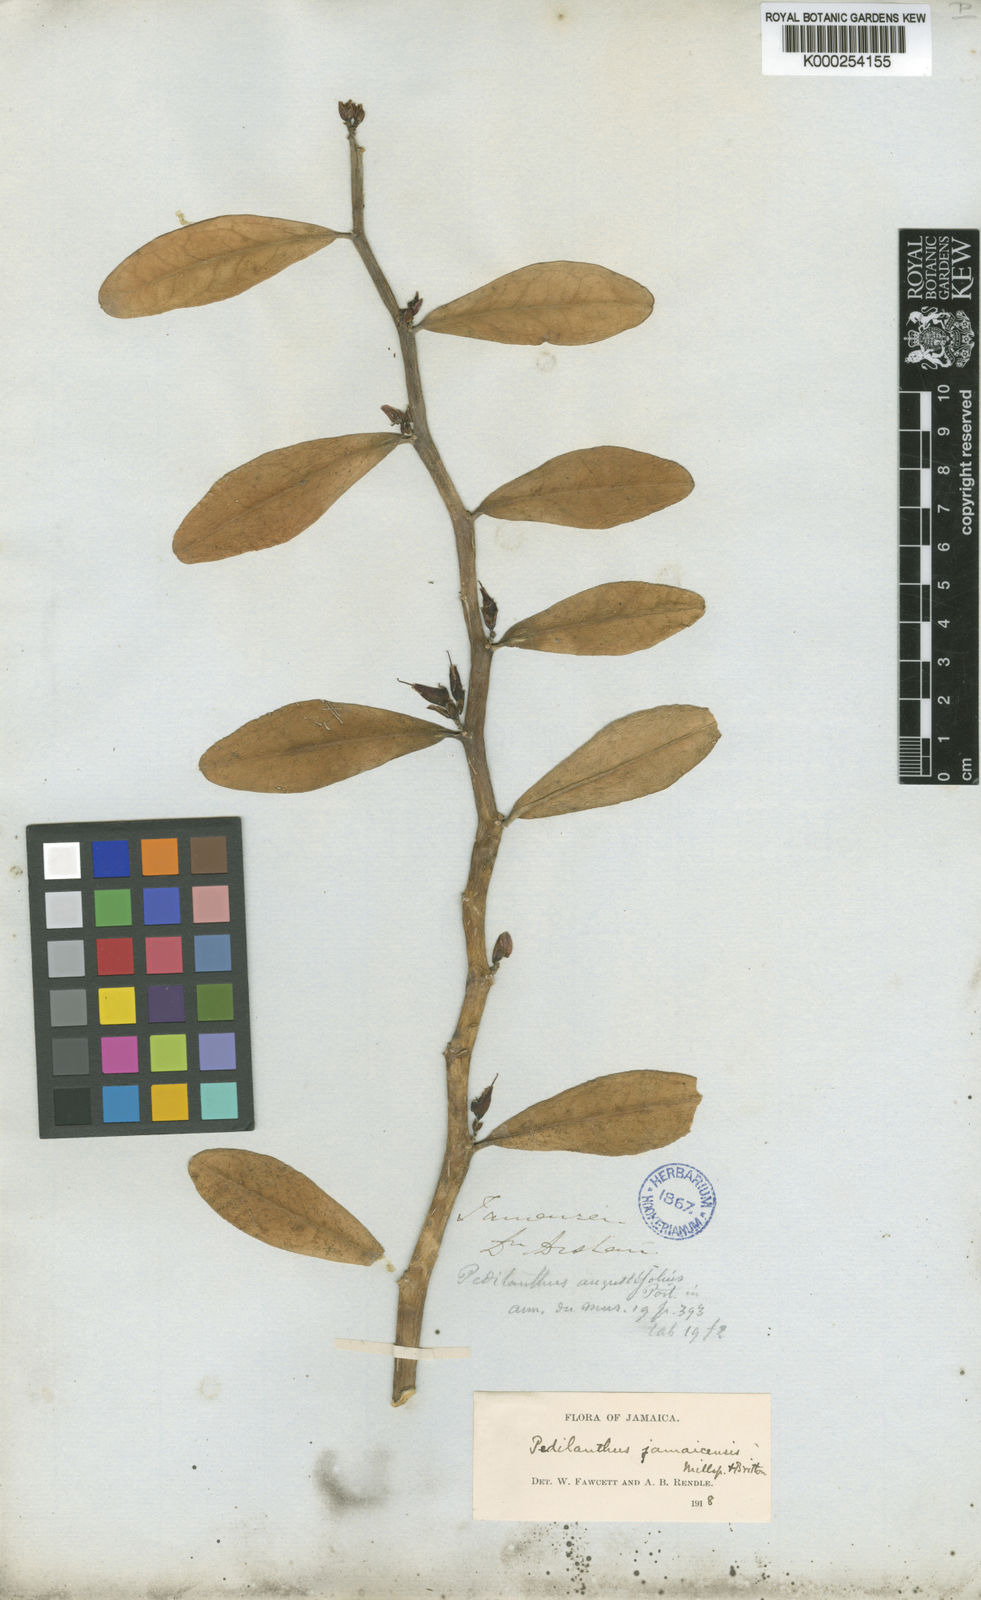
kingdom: Plantae
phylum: Tracheophyta
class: Magnoliopsida
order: Malpighiales
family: Euphorbiaceae
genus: Euphorbia
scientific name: Euphorbia tithymaloides
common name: Slipperplant
